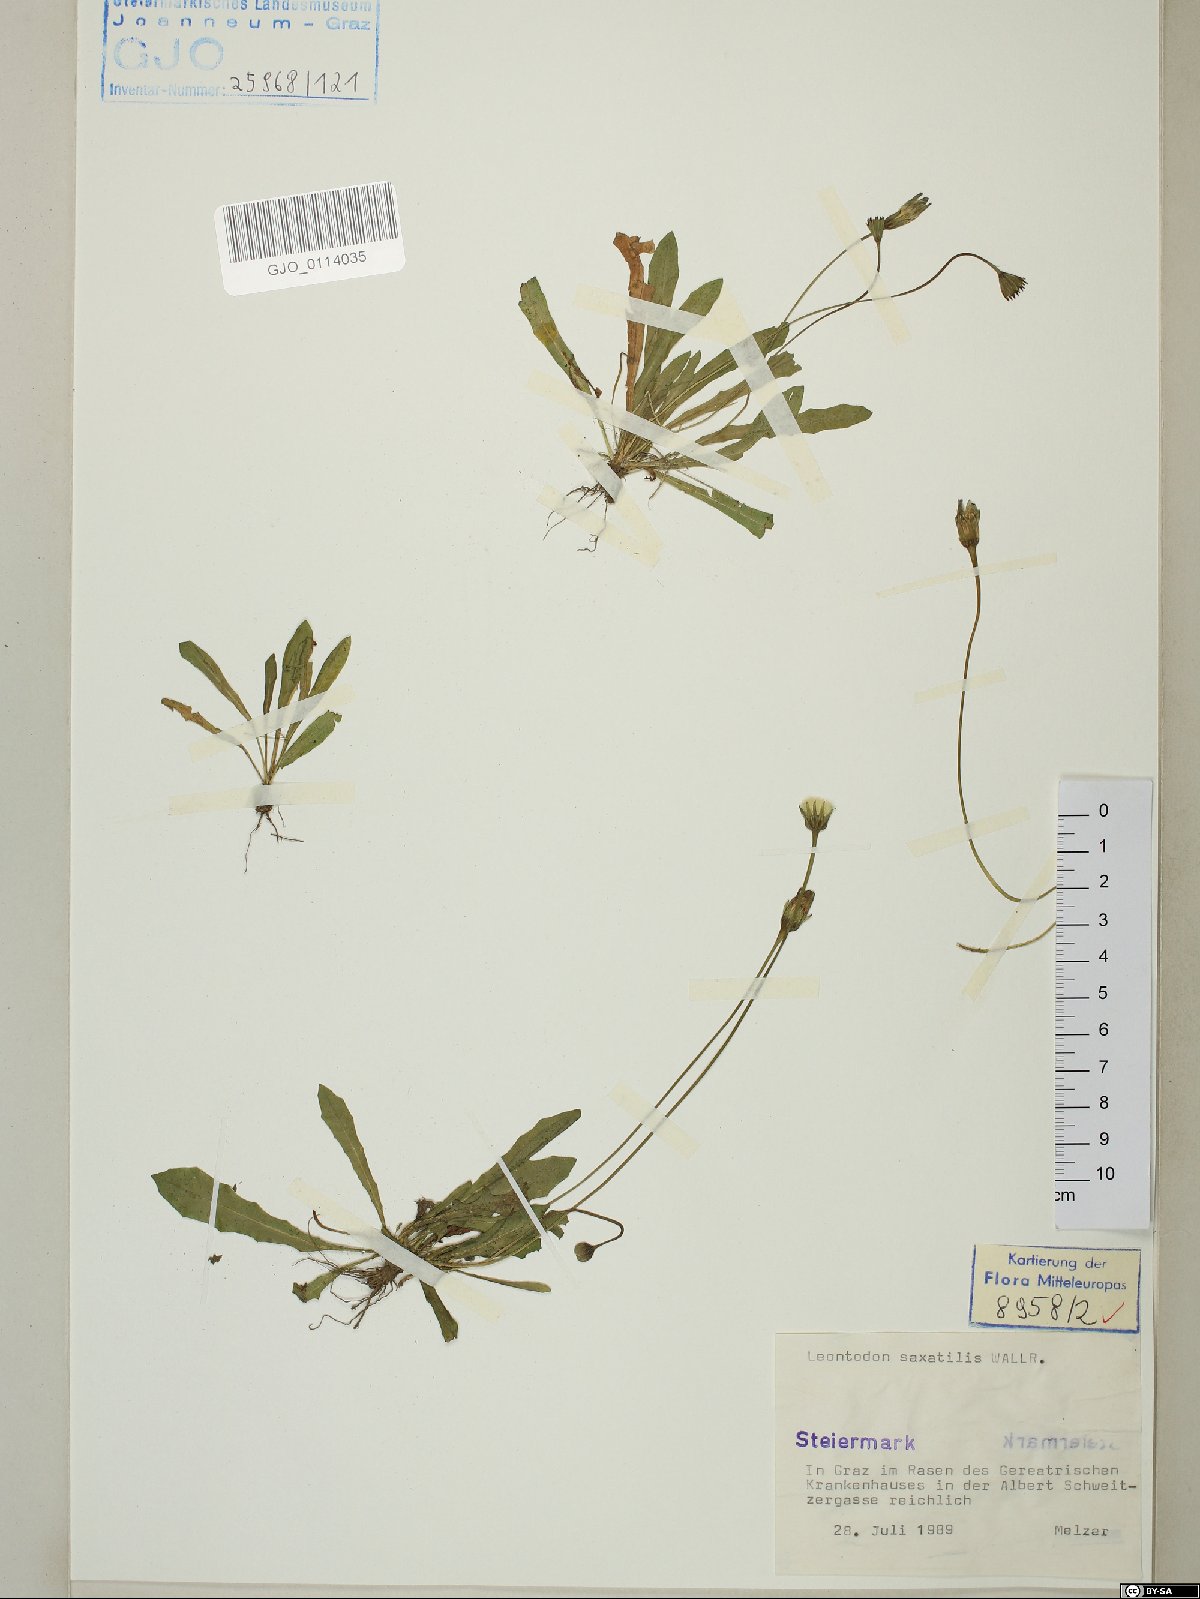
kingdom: Plantae
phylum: Tracheophyta
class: Magnoliopsida
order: Asterales
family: Asteraceae
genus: Thrincia
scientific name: Thrincia saxatilis
